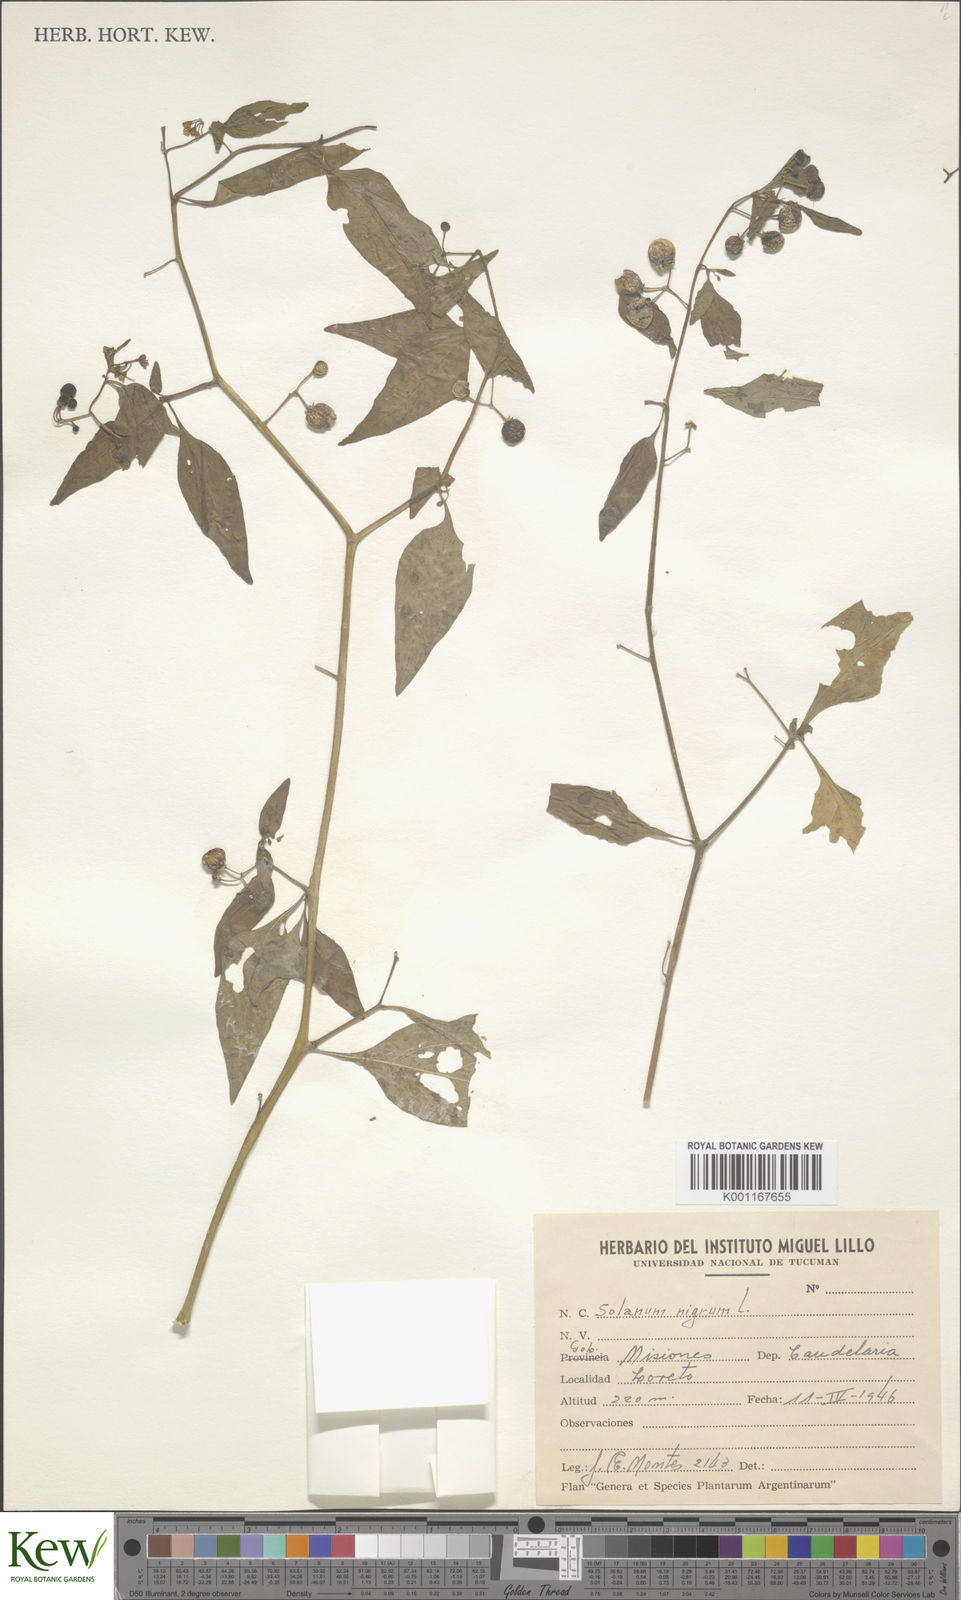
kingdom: Plantae
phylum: Tracheophyta
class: Magnoliopsida
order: Solanales
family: Solanaceae
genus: Solanum
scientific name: Solanum americanum
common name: American black nightshade
